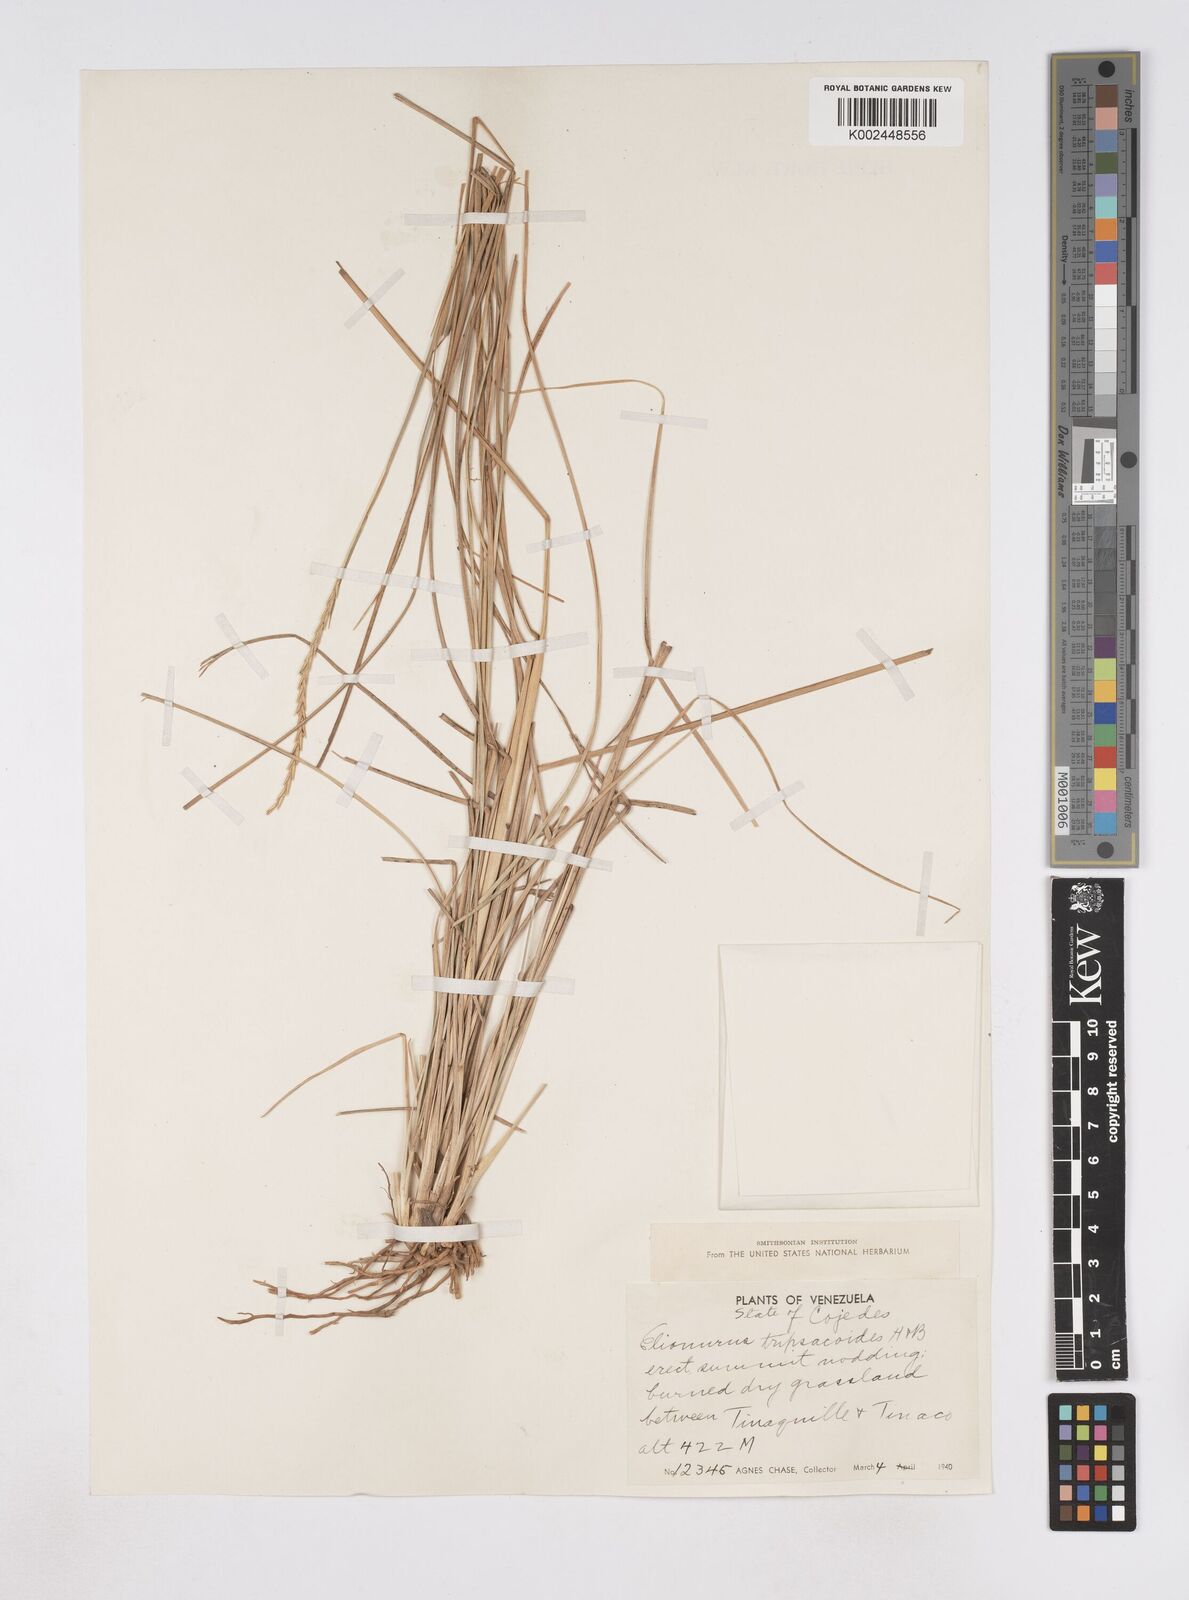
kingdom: Plantae
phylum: Tracheophyta
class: Liliopsida
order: Poales
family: Poaceae
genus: Elionurus
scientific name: Elionurus tripsacoides
